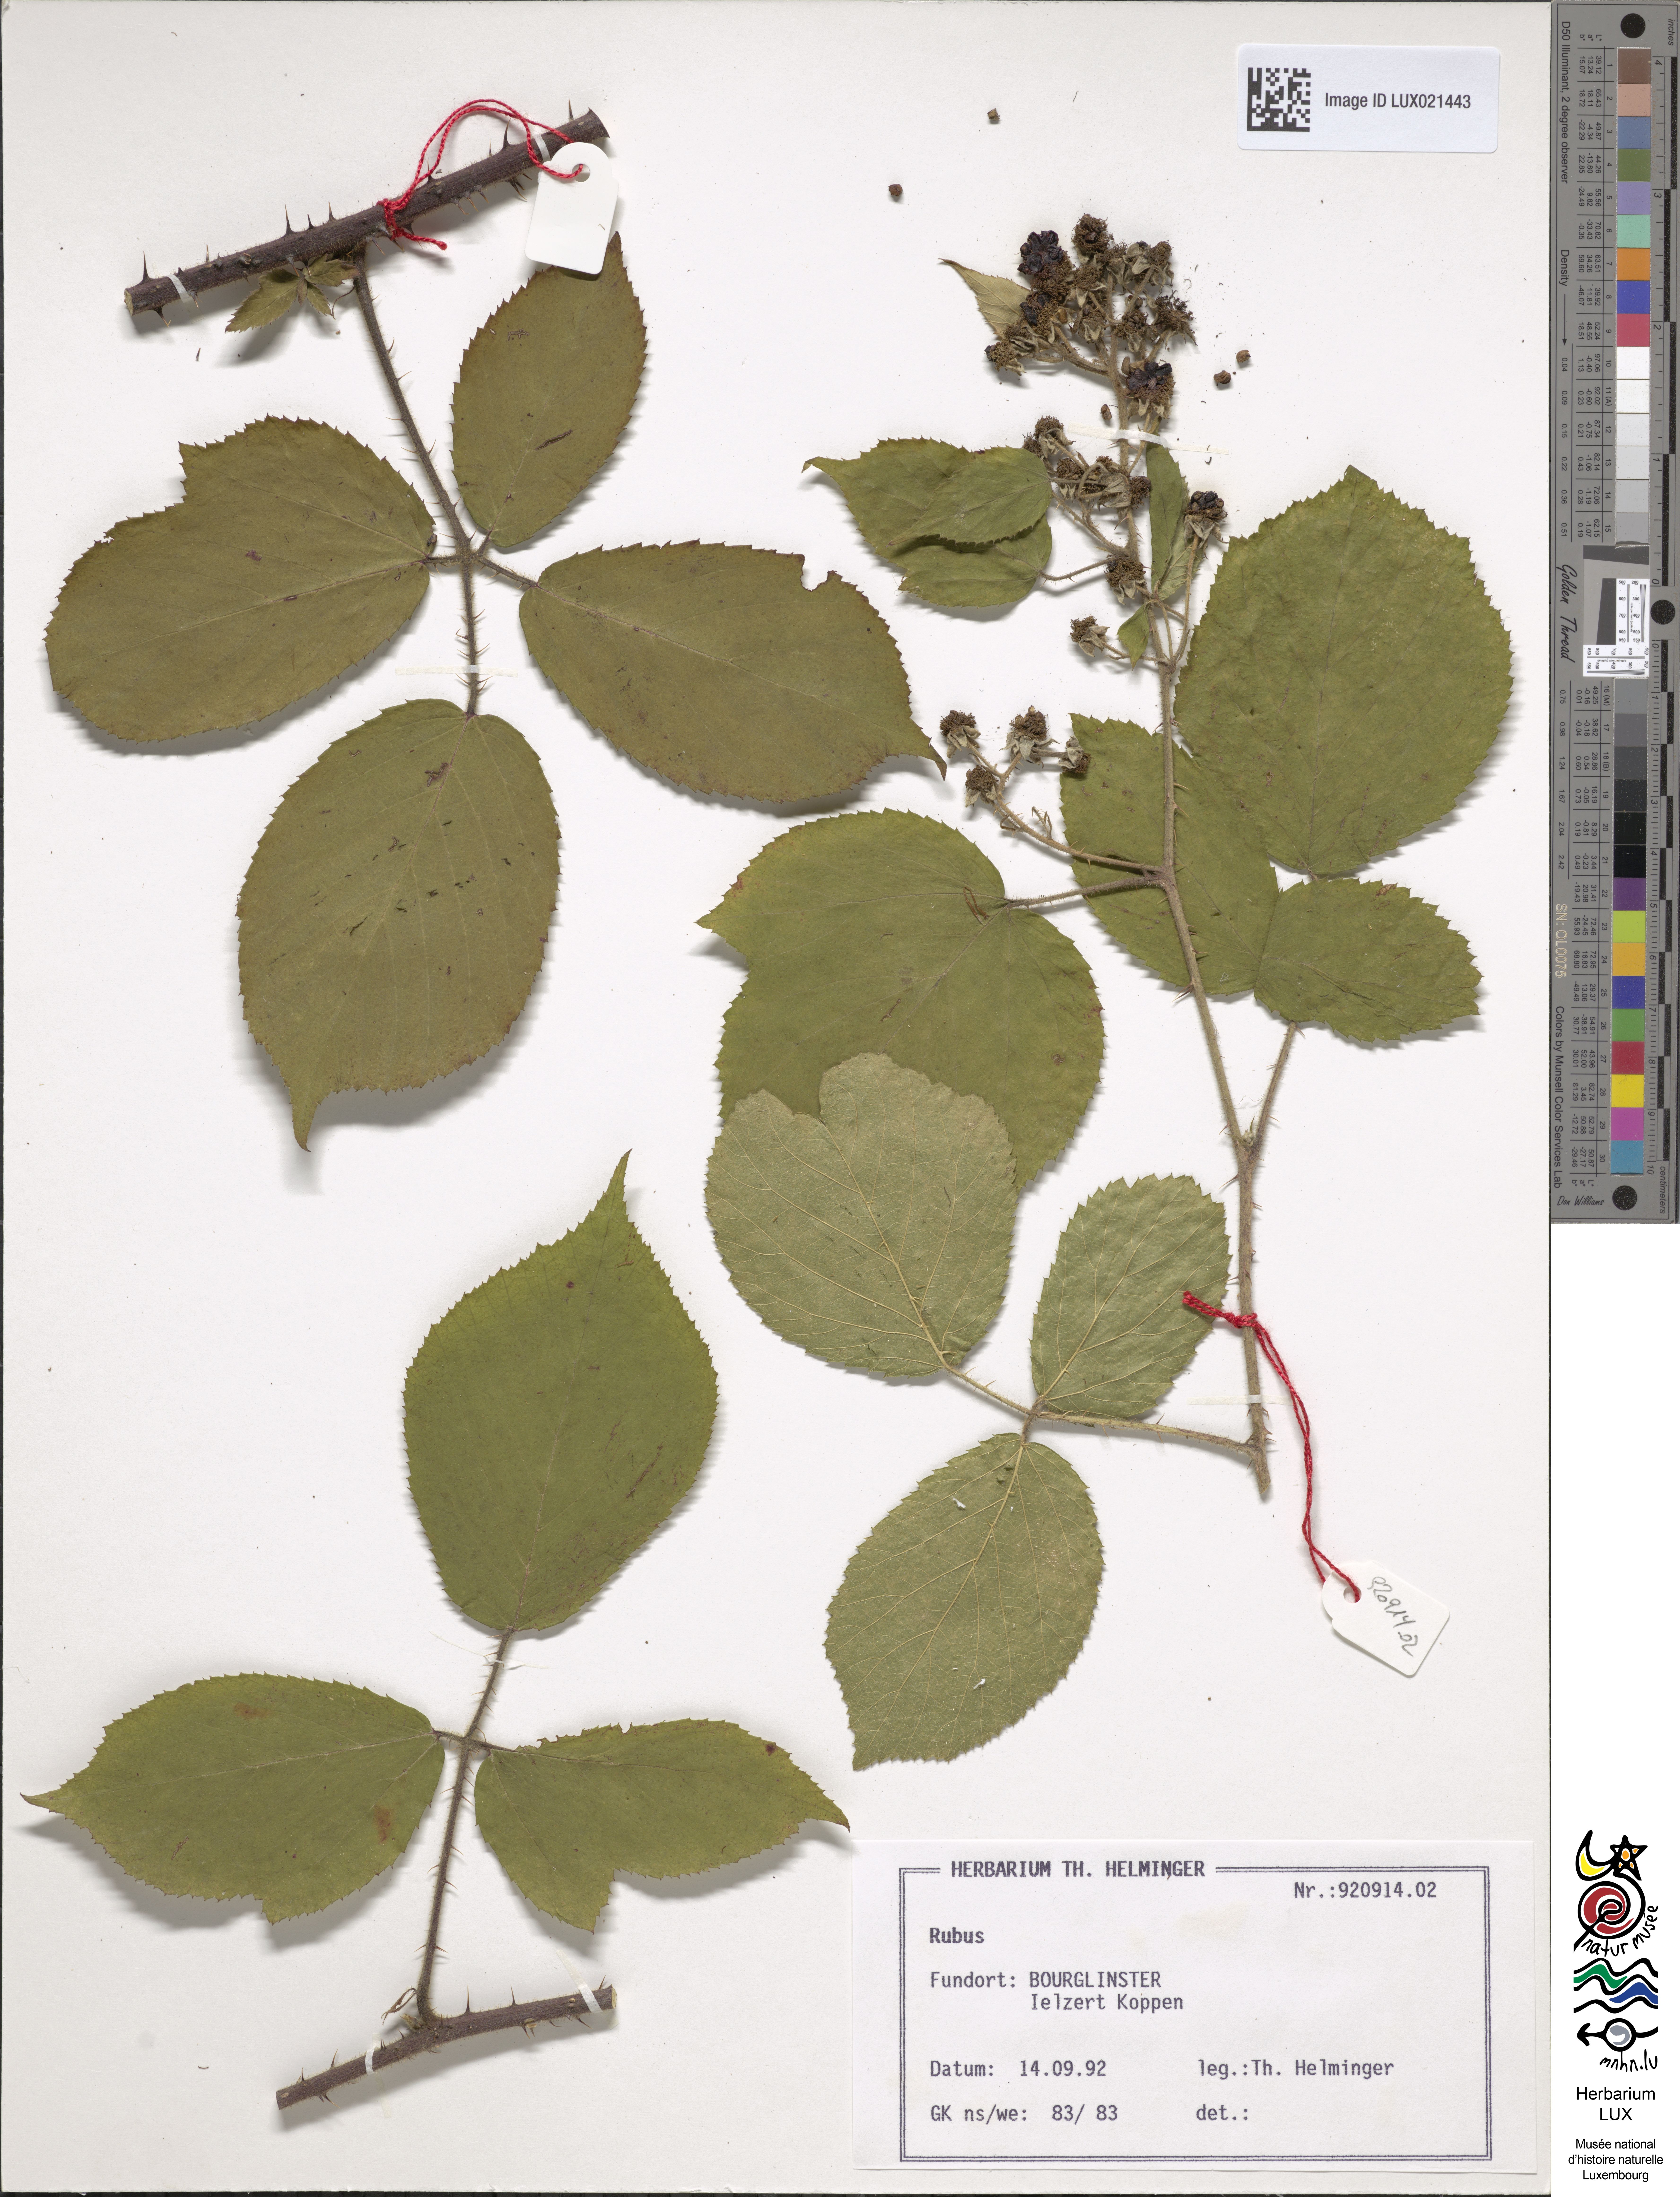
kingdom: Plantae
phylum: Tracheophyta
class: Magnoliopsida
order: Rosales
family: Rosaceae
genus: Rubus
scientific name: Rubus
